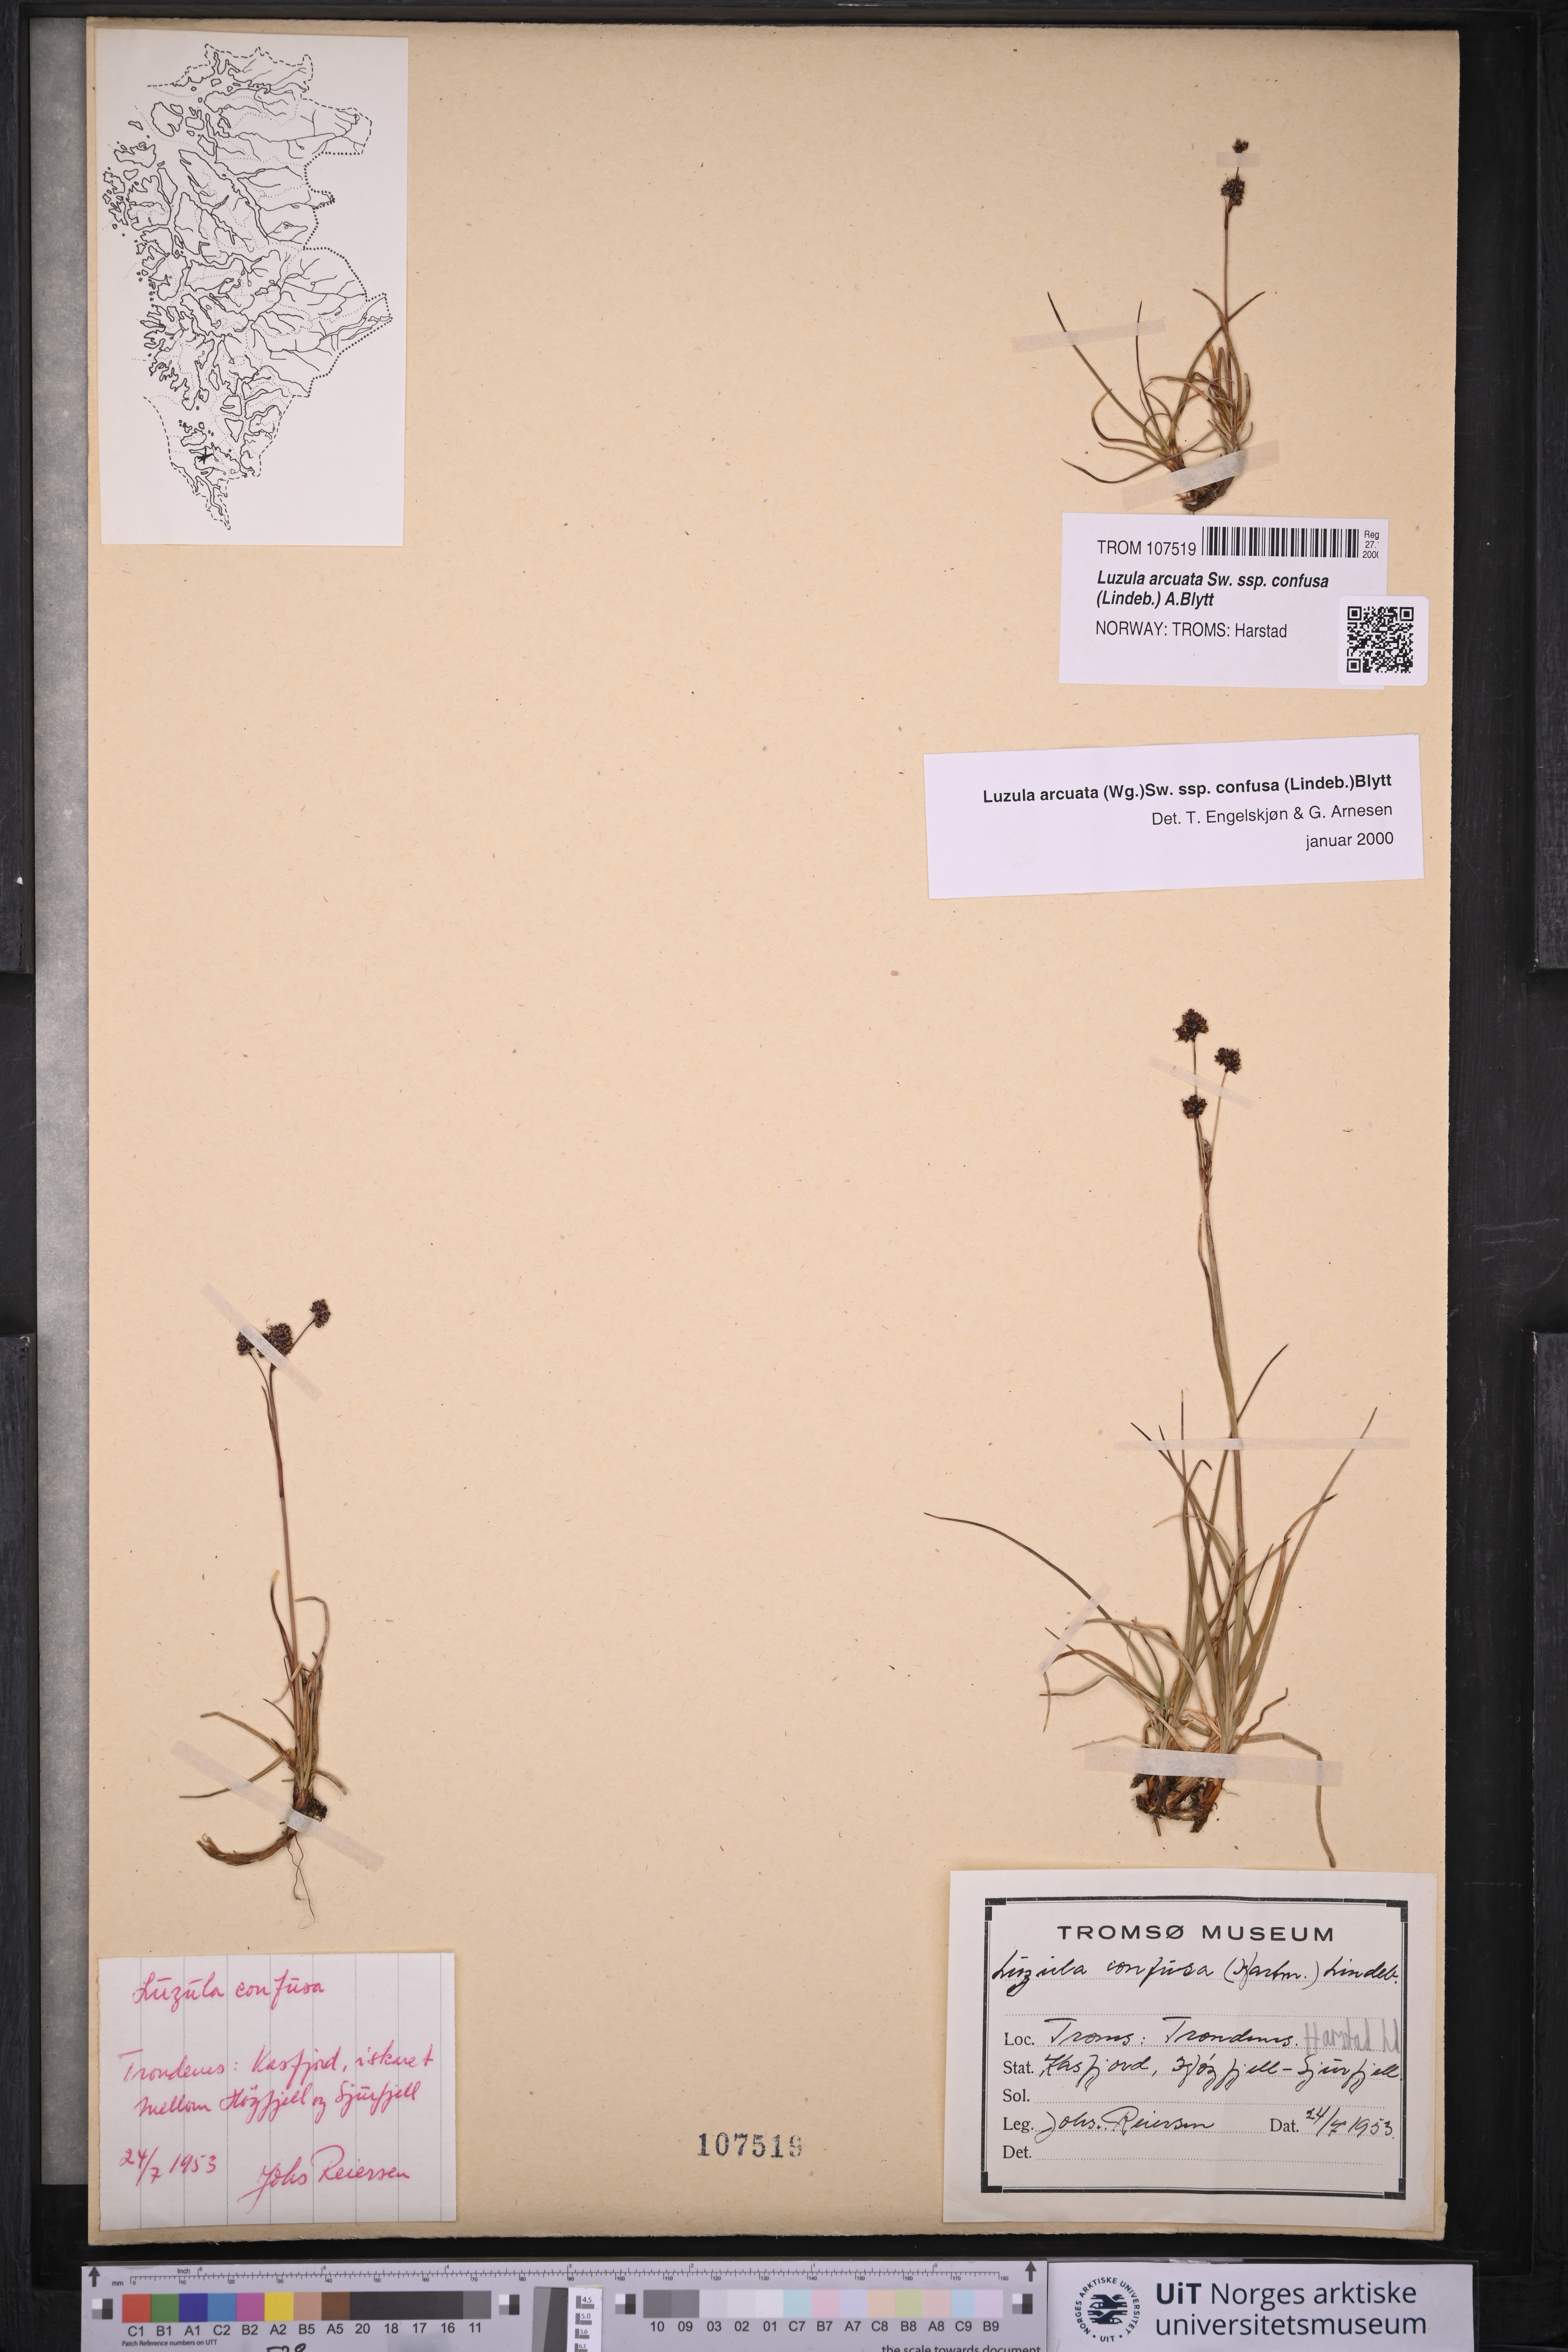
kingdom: Plantae
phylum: Tracheophyta
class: Liliopsida
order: Poales
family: Juncaceae
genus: Luzula
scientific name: Luzula confusa
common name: Northern wood rush
